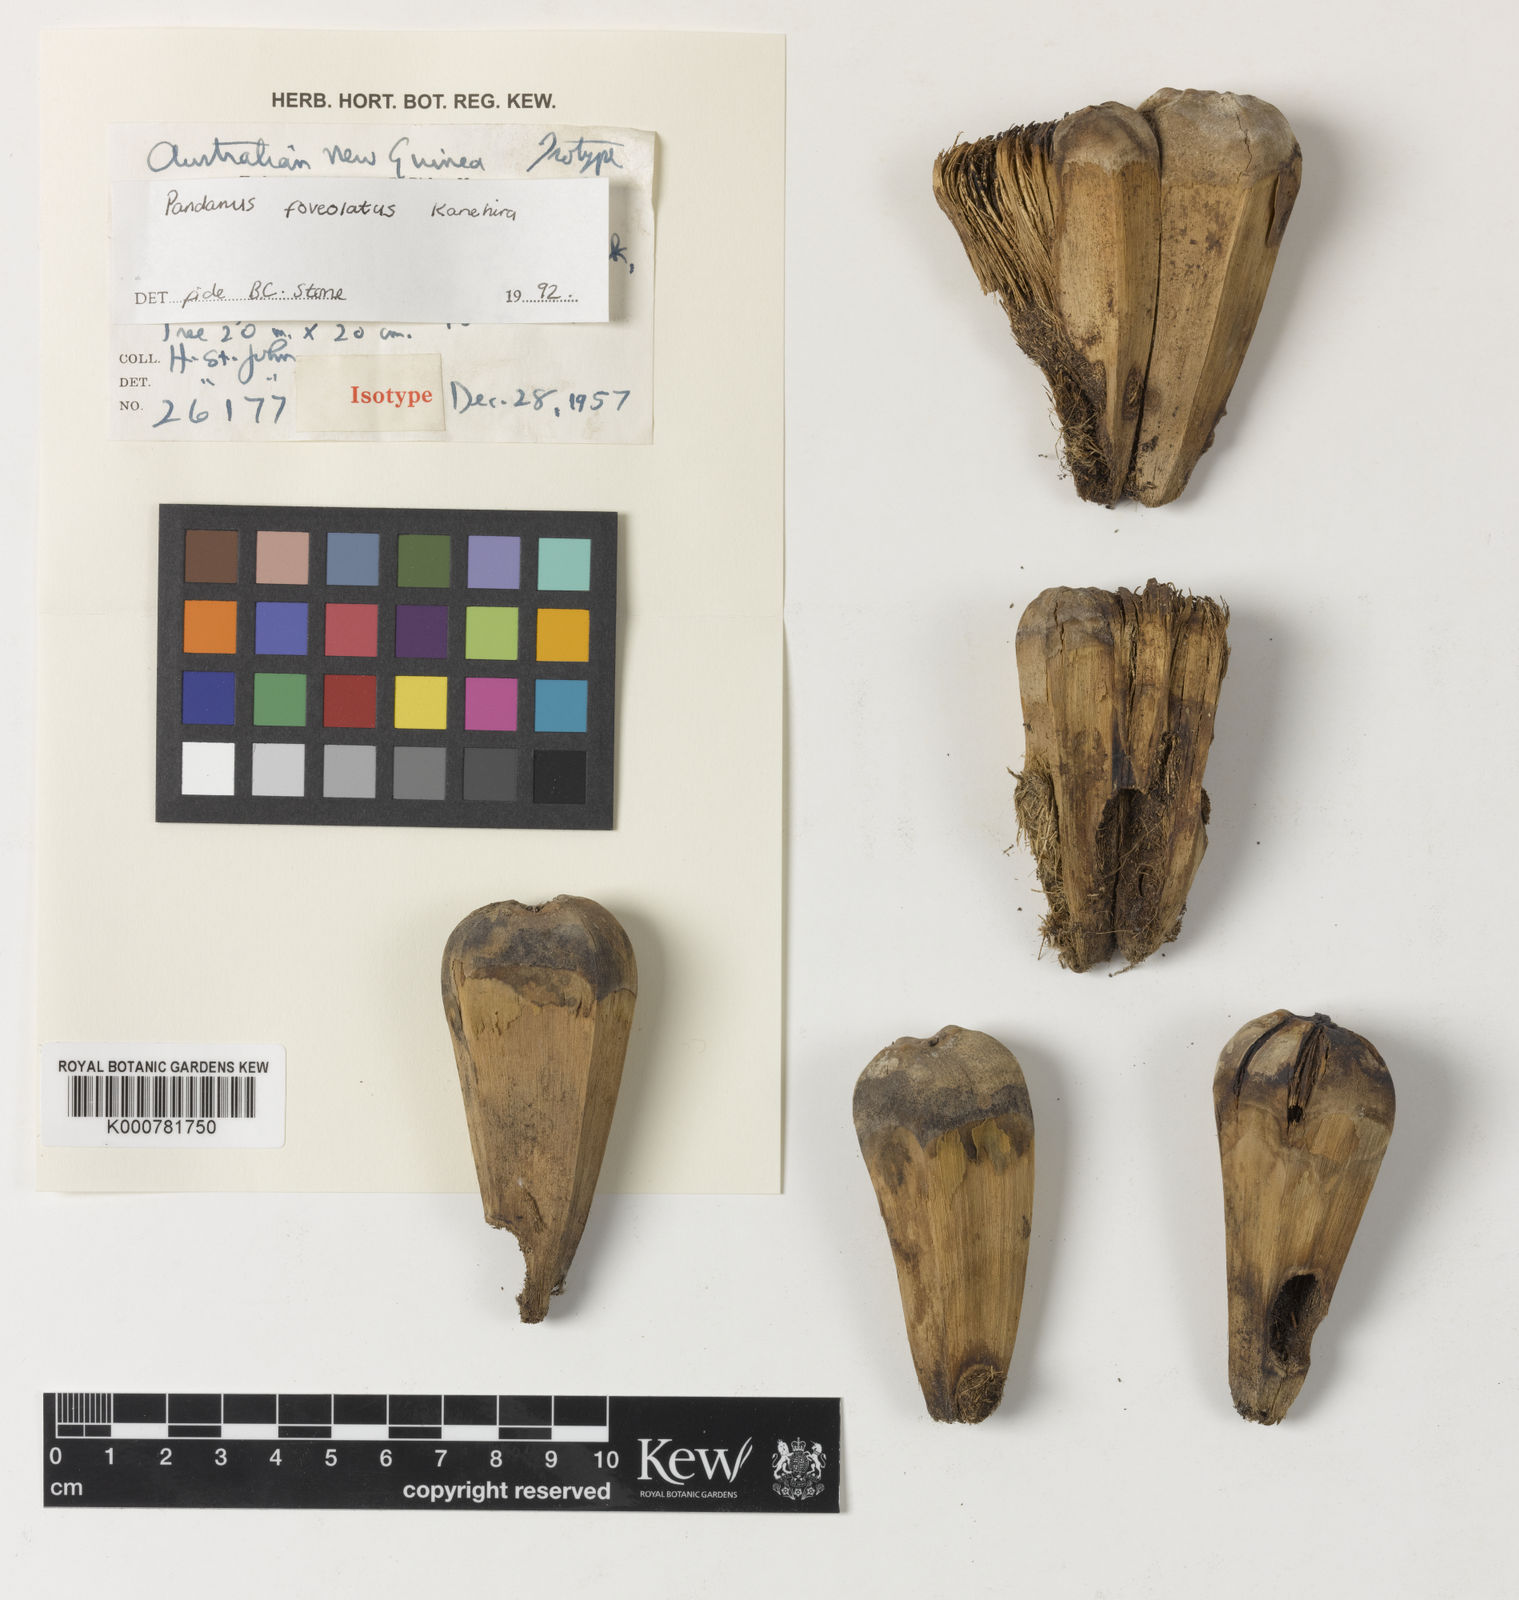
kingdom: Plantae
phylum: Tracheophyta
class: Liliopsida
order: Pandanales
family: Pandanaceae
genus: Pandanus
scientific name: Pandanus foveolatus
